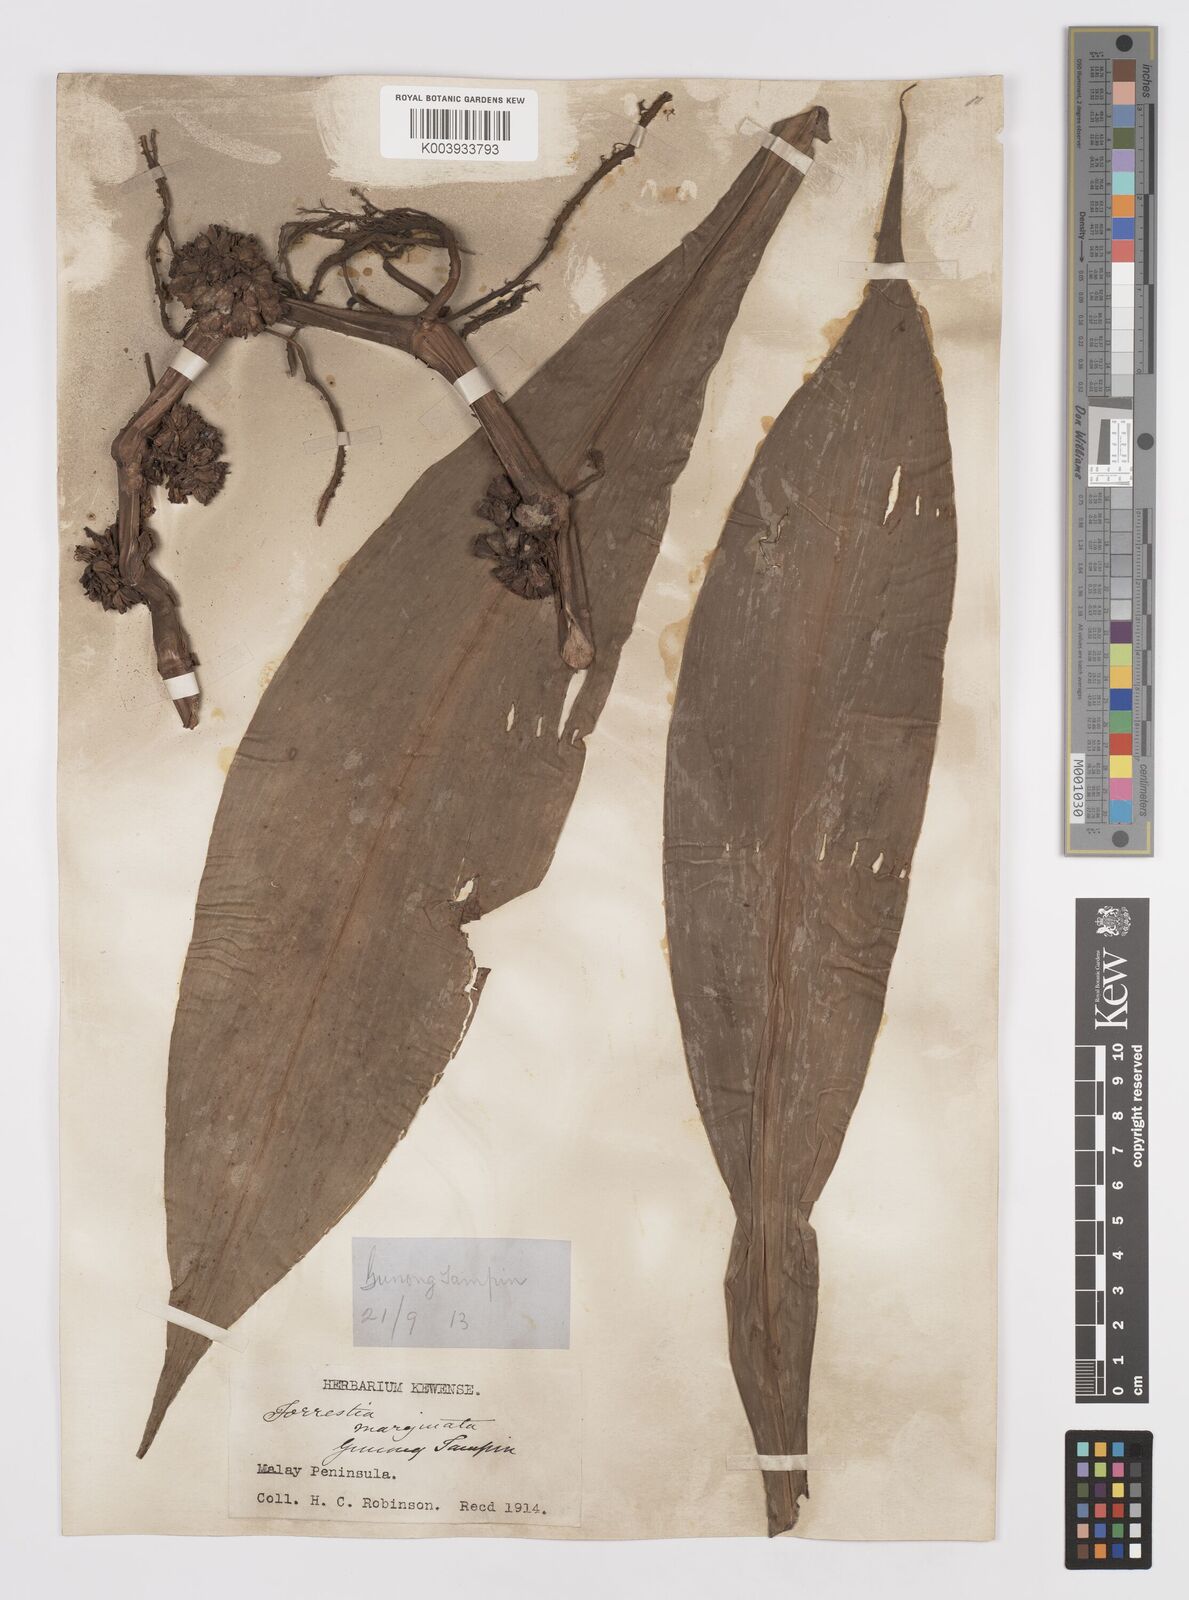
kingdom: Plantae
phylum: Tracheophyta
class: Liliopsida
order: Commelinales
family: Commelinaceae
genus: Amischotolype
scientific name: Amischotolype marginata
